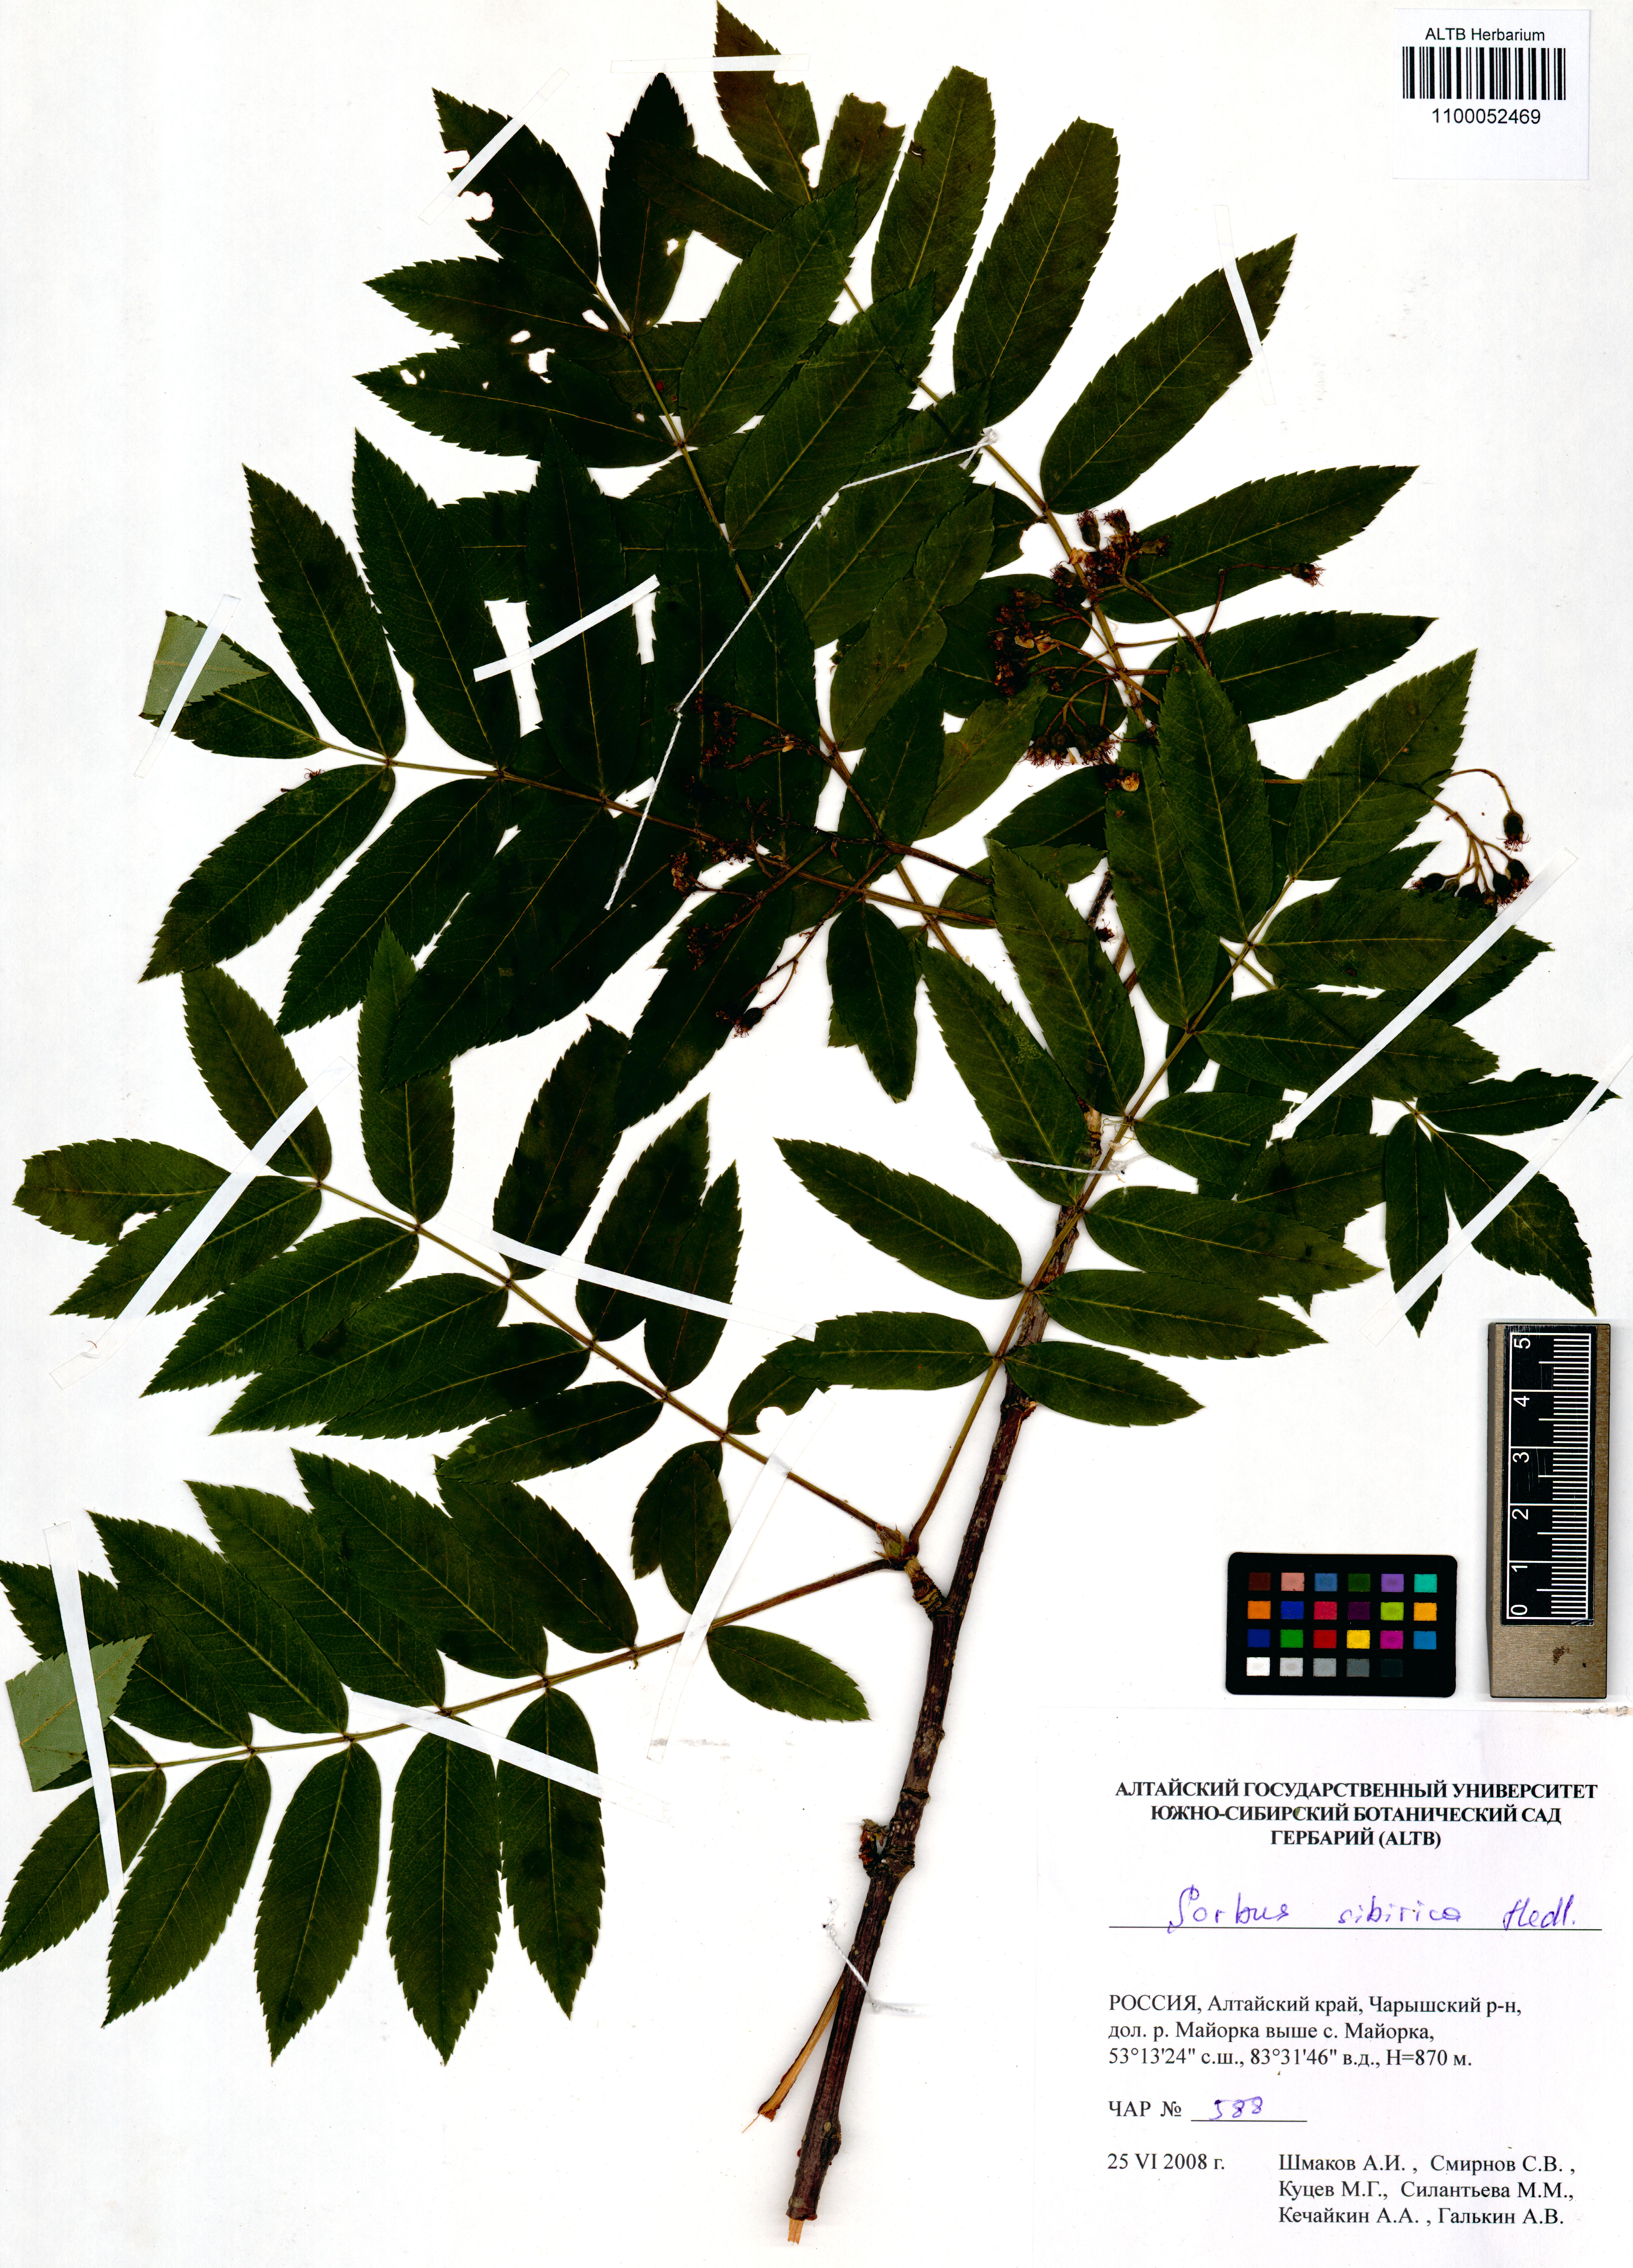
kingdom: Plantae
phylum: Tracheophyta
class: Magnoliopsida
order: Rosales
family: Rosaceae
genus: Sorbus
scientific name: Sorbus aucuparia
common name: Rowan
